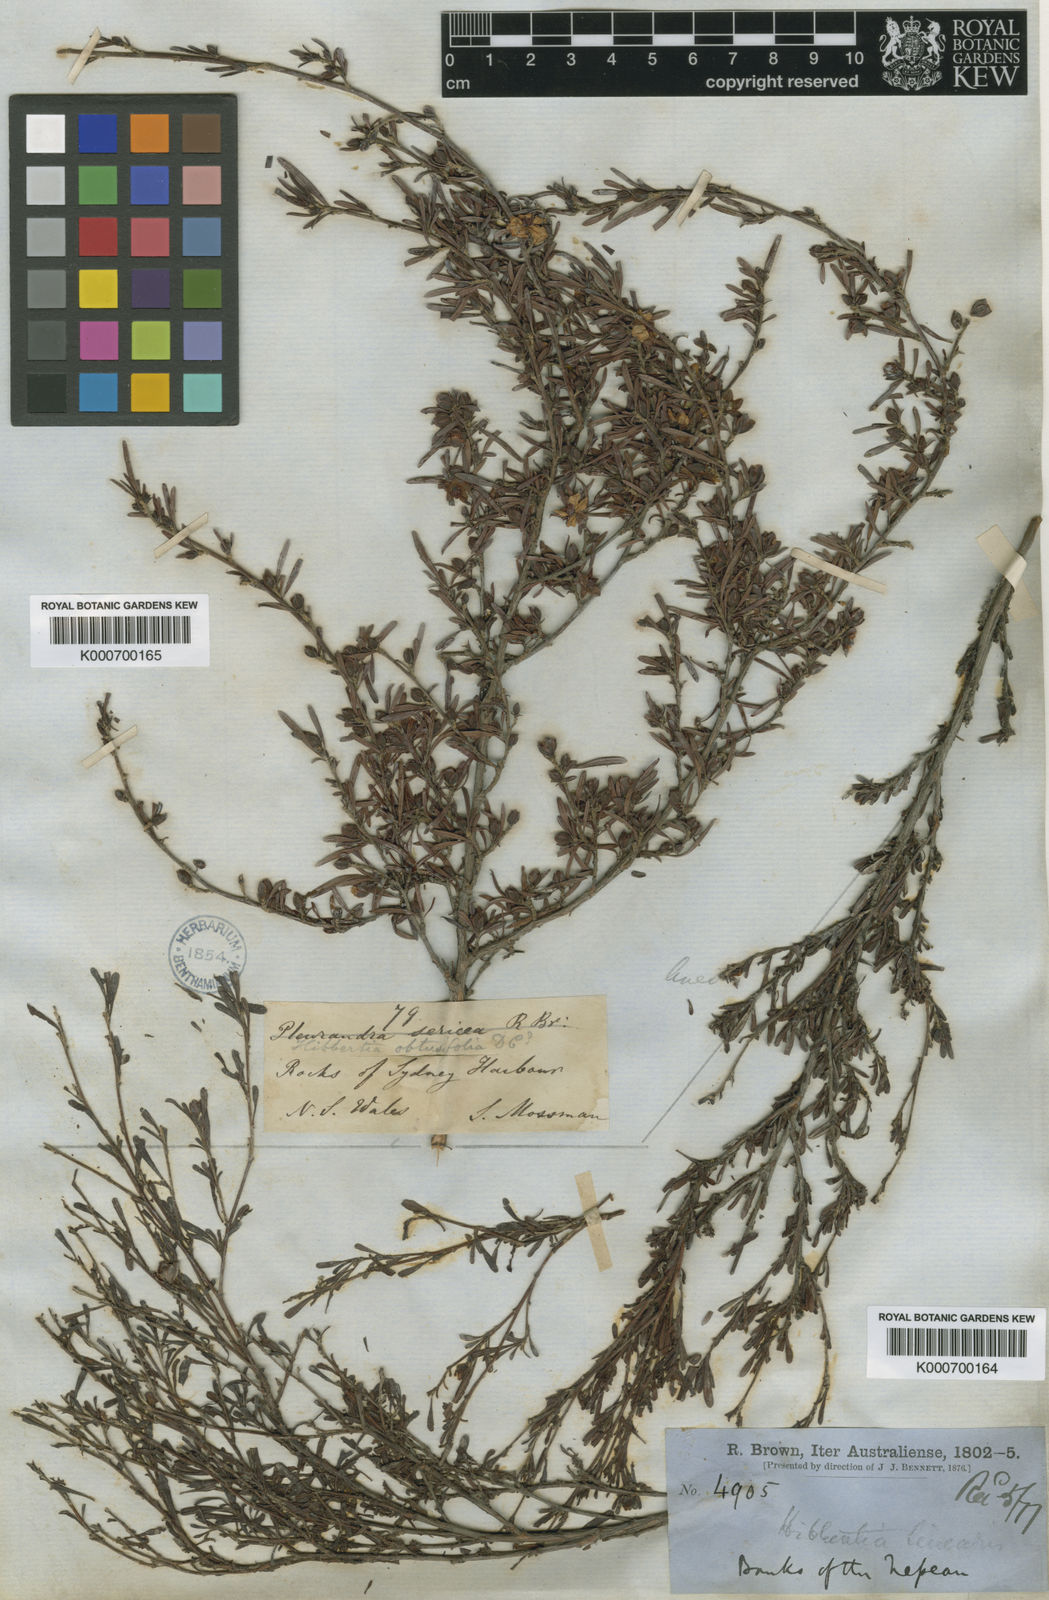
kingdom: Plantae
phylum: Tracheophyta
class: Magnoliopsida
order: Dilleniales
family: Dilleniaceae
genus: Hibbertia
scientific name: Hibbertia linearis
